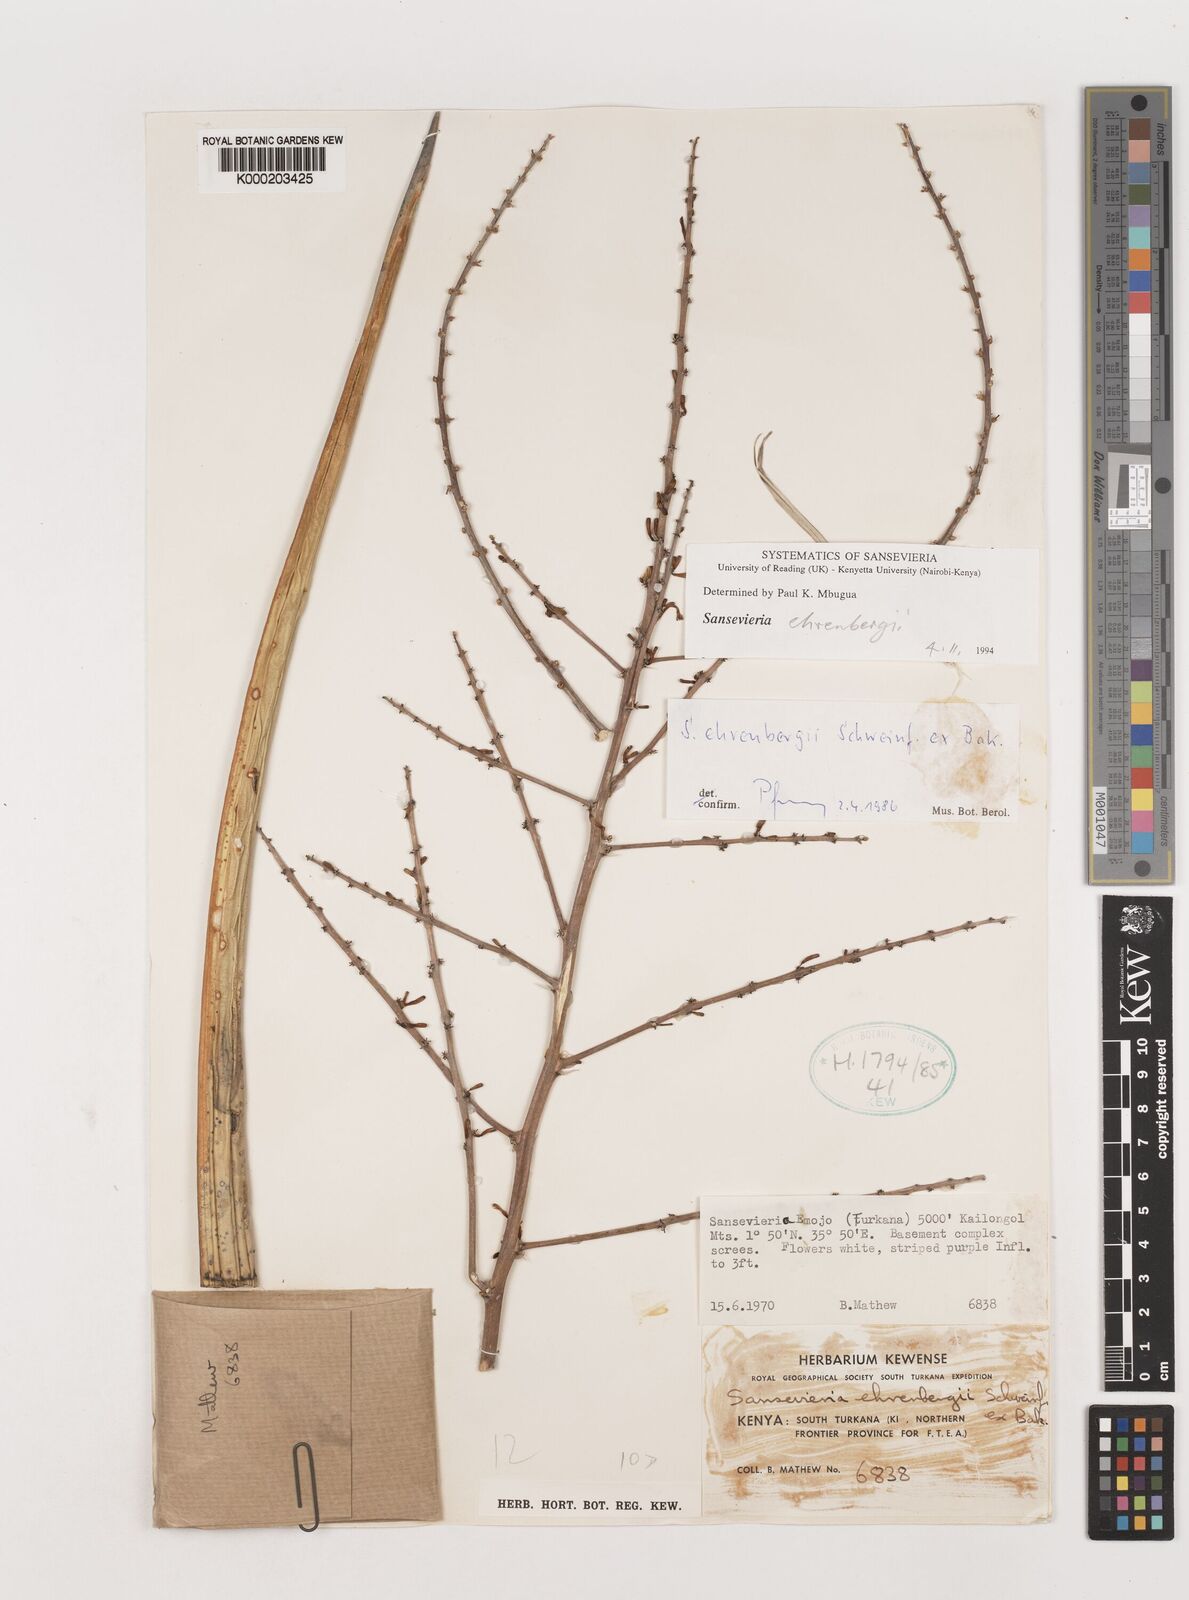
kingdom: Plantae
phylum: Tracheophyta
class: Liliopsida
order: Asparagales
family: Asparagaceae
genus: Dracaena
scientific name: Dracaena hanningtonii
